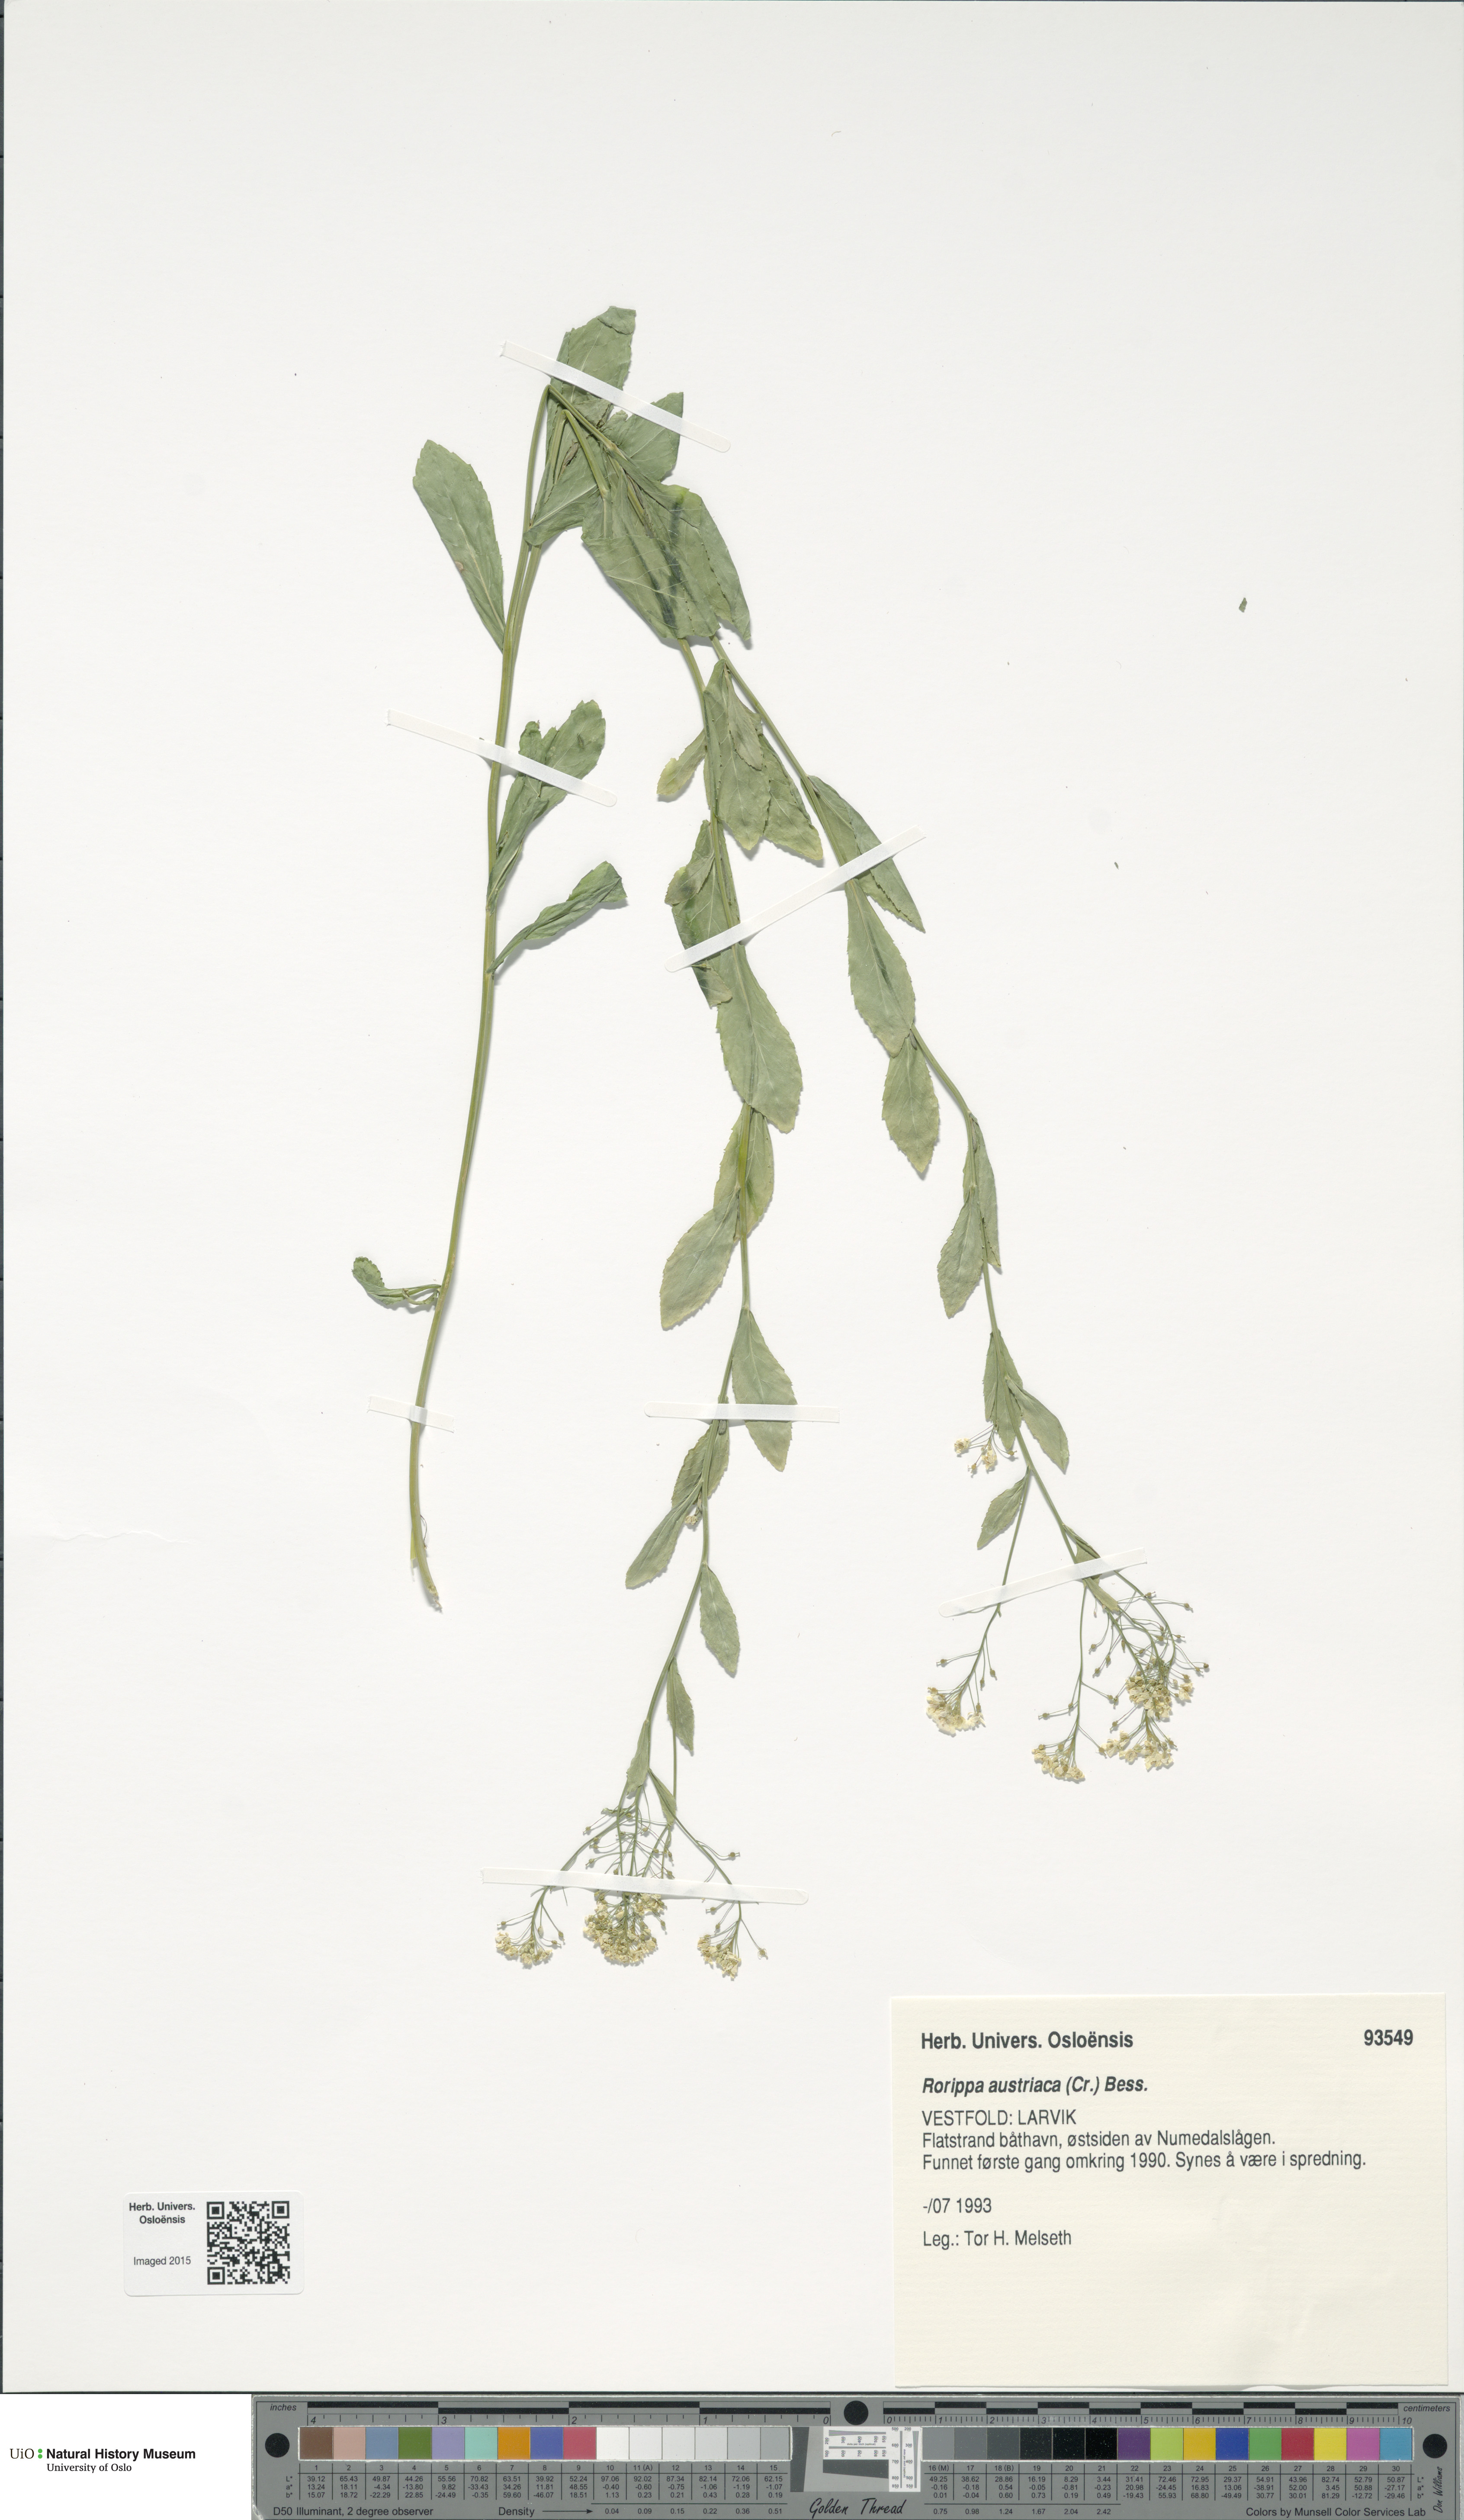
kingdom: Plantae
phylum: Tracheophyta
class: Magnoliopsida
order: Brassicales
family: Brassicaceae
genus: Rorippa
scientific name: Rorippa austriaca
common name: Austrian yellow-cress
